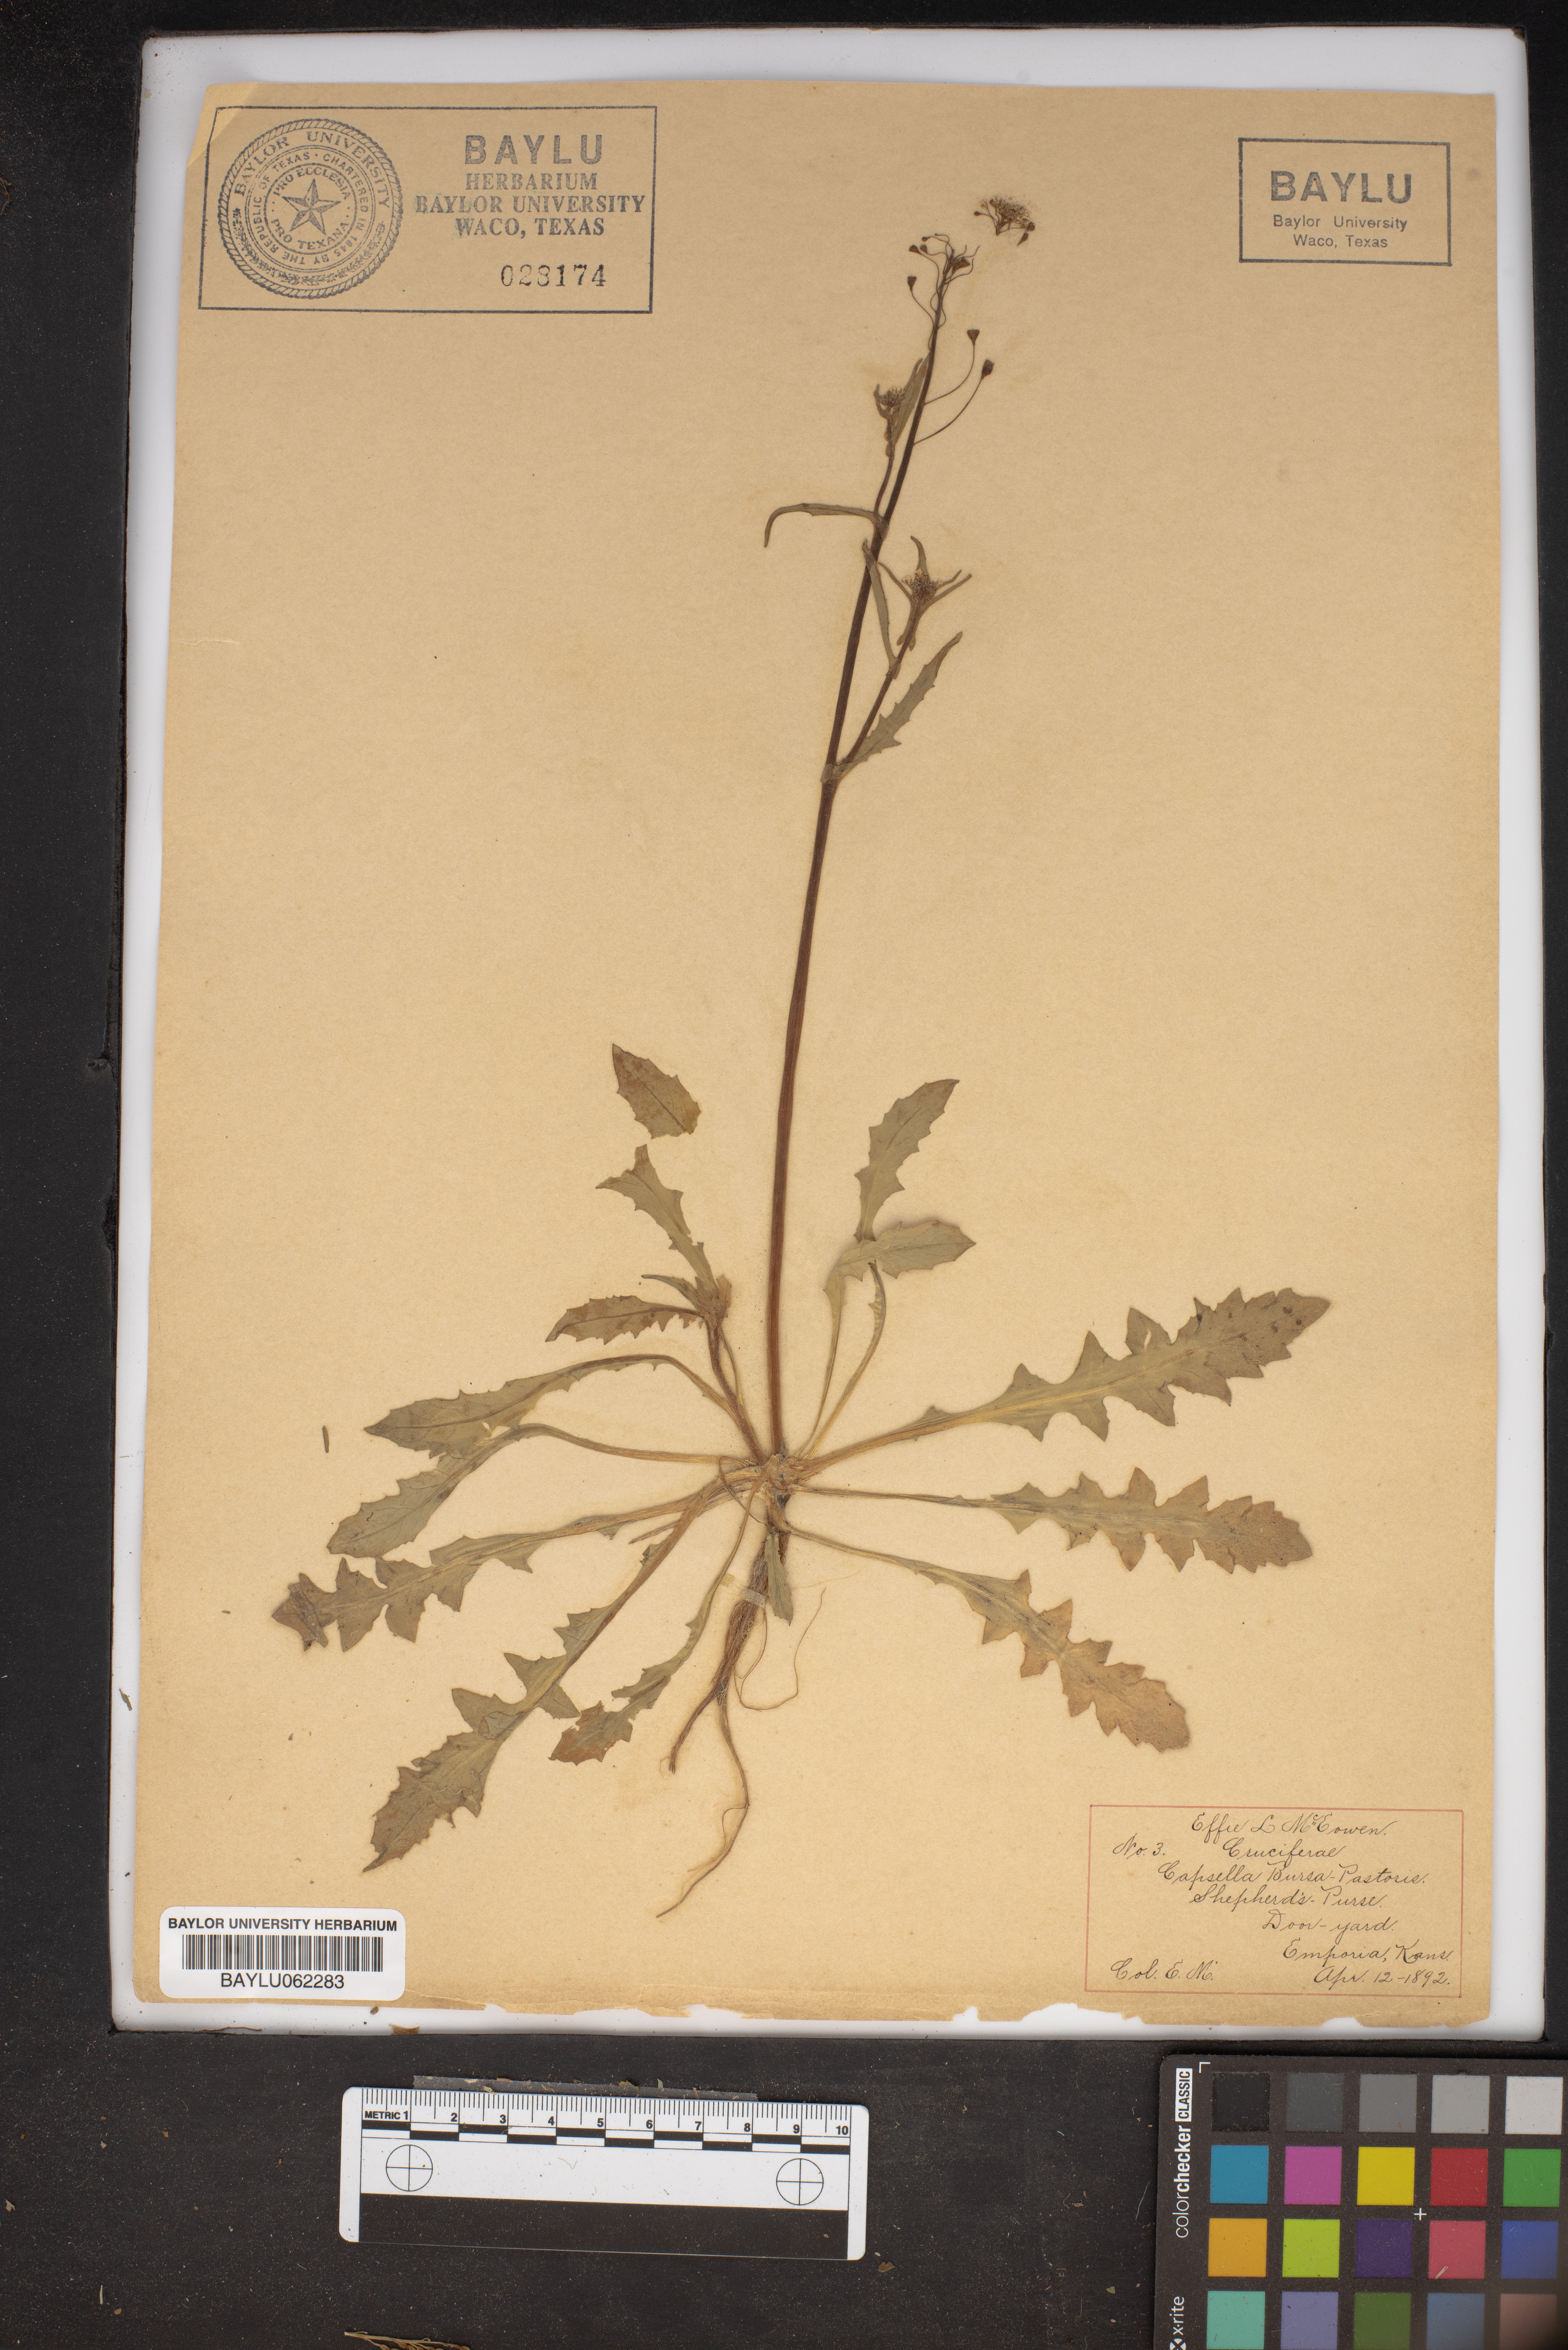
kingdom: Plantae
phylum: Tracheophyta
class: Magnoliopsida
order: Brassicales
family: Brassicaceae
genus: Capsella
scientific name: Capsella bursa-pastoris
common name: Shepherd's purse
